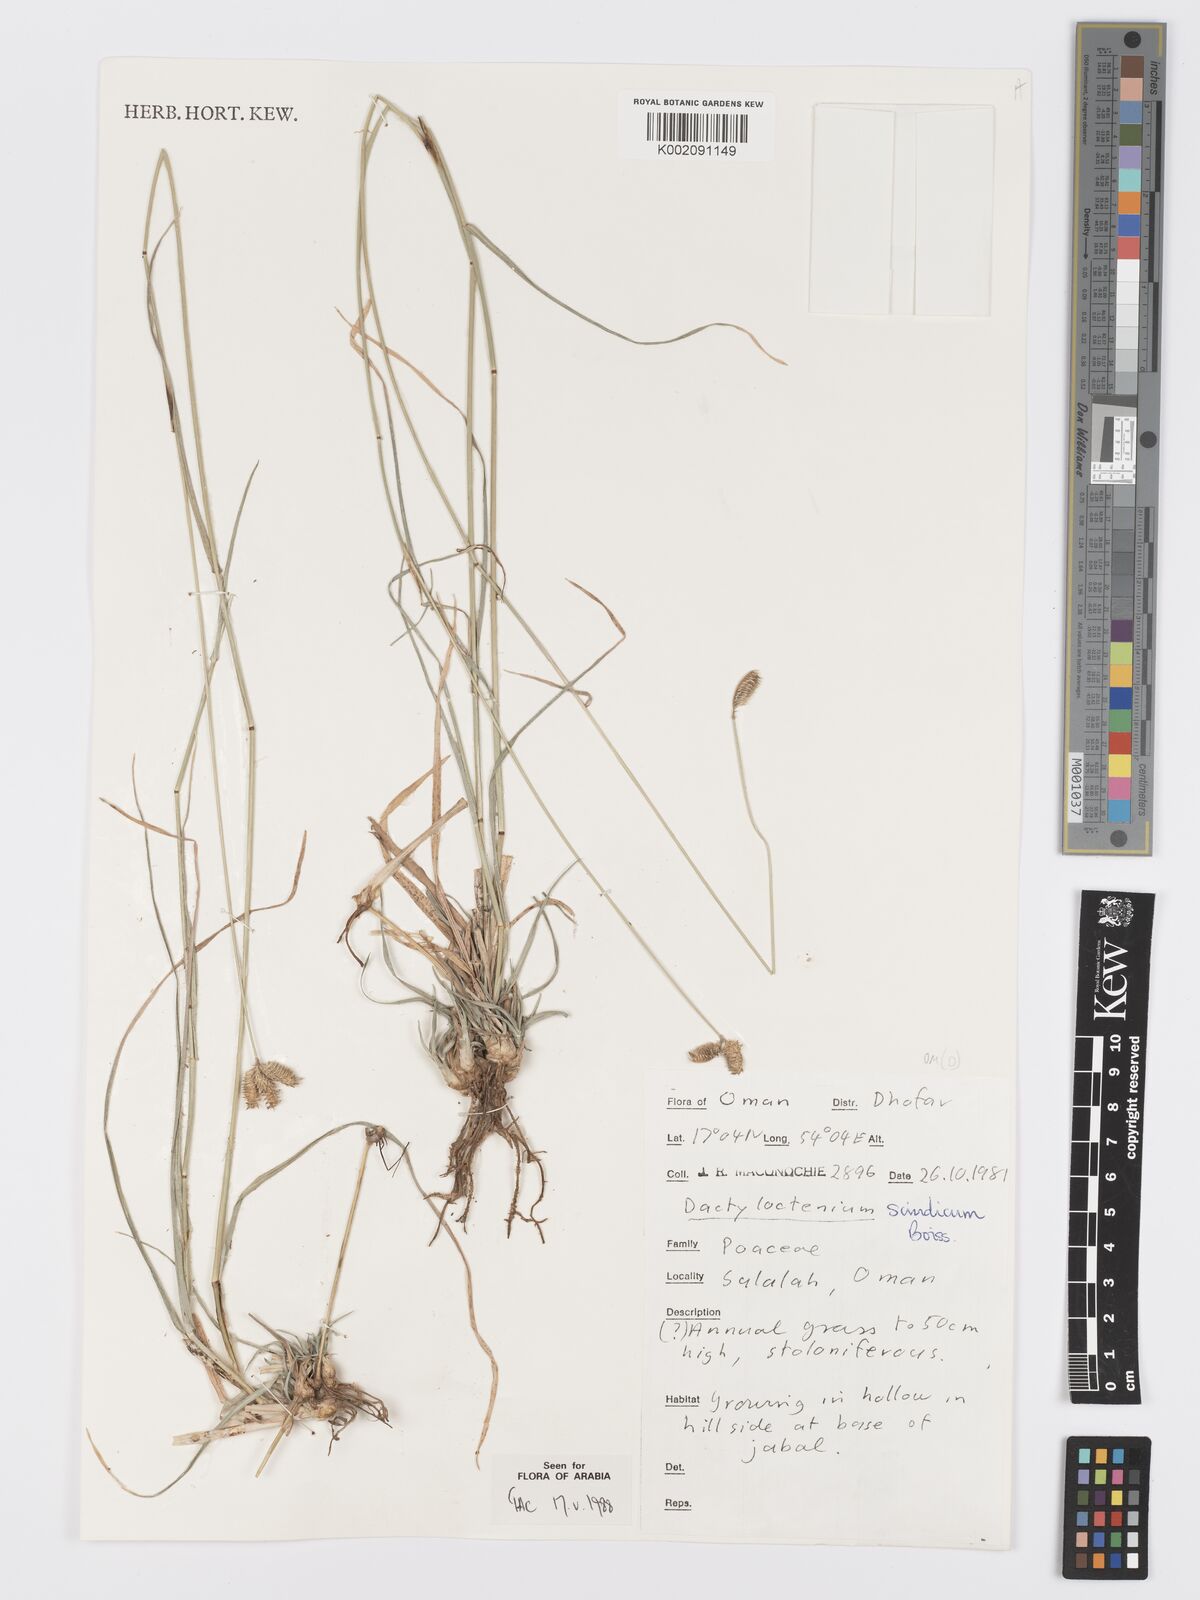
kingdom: Plantae
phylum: Tracheophyta
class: Liliopsida
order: Poales
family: Poaceae
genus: Dactyloctenium
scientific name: Dactyloctenium scindicum
